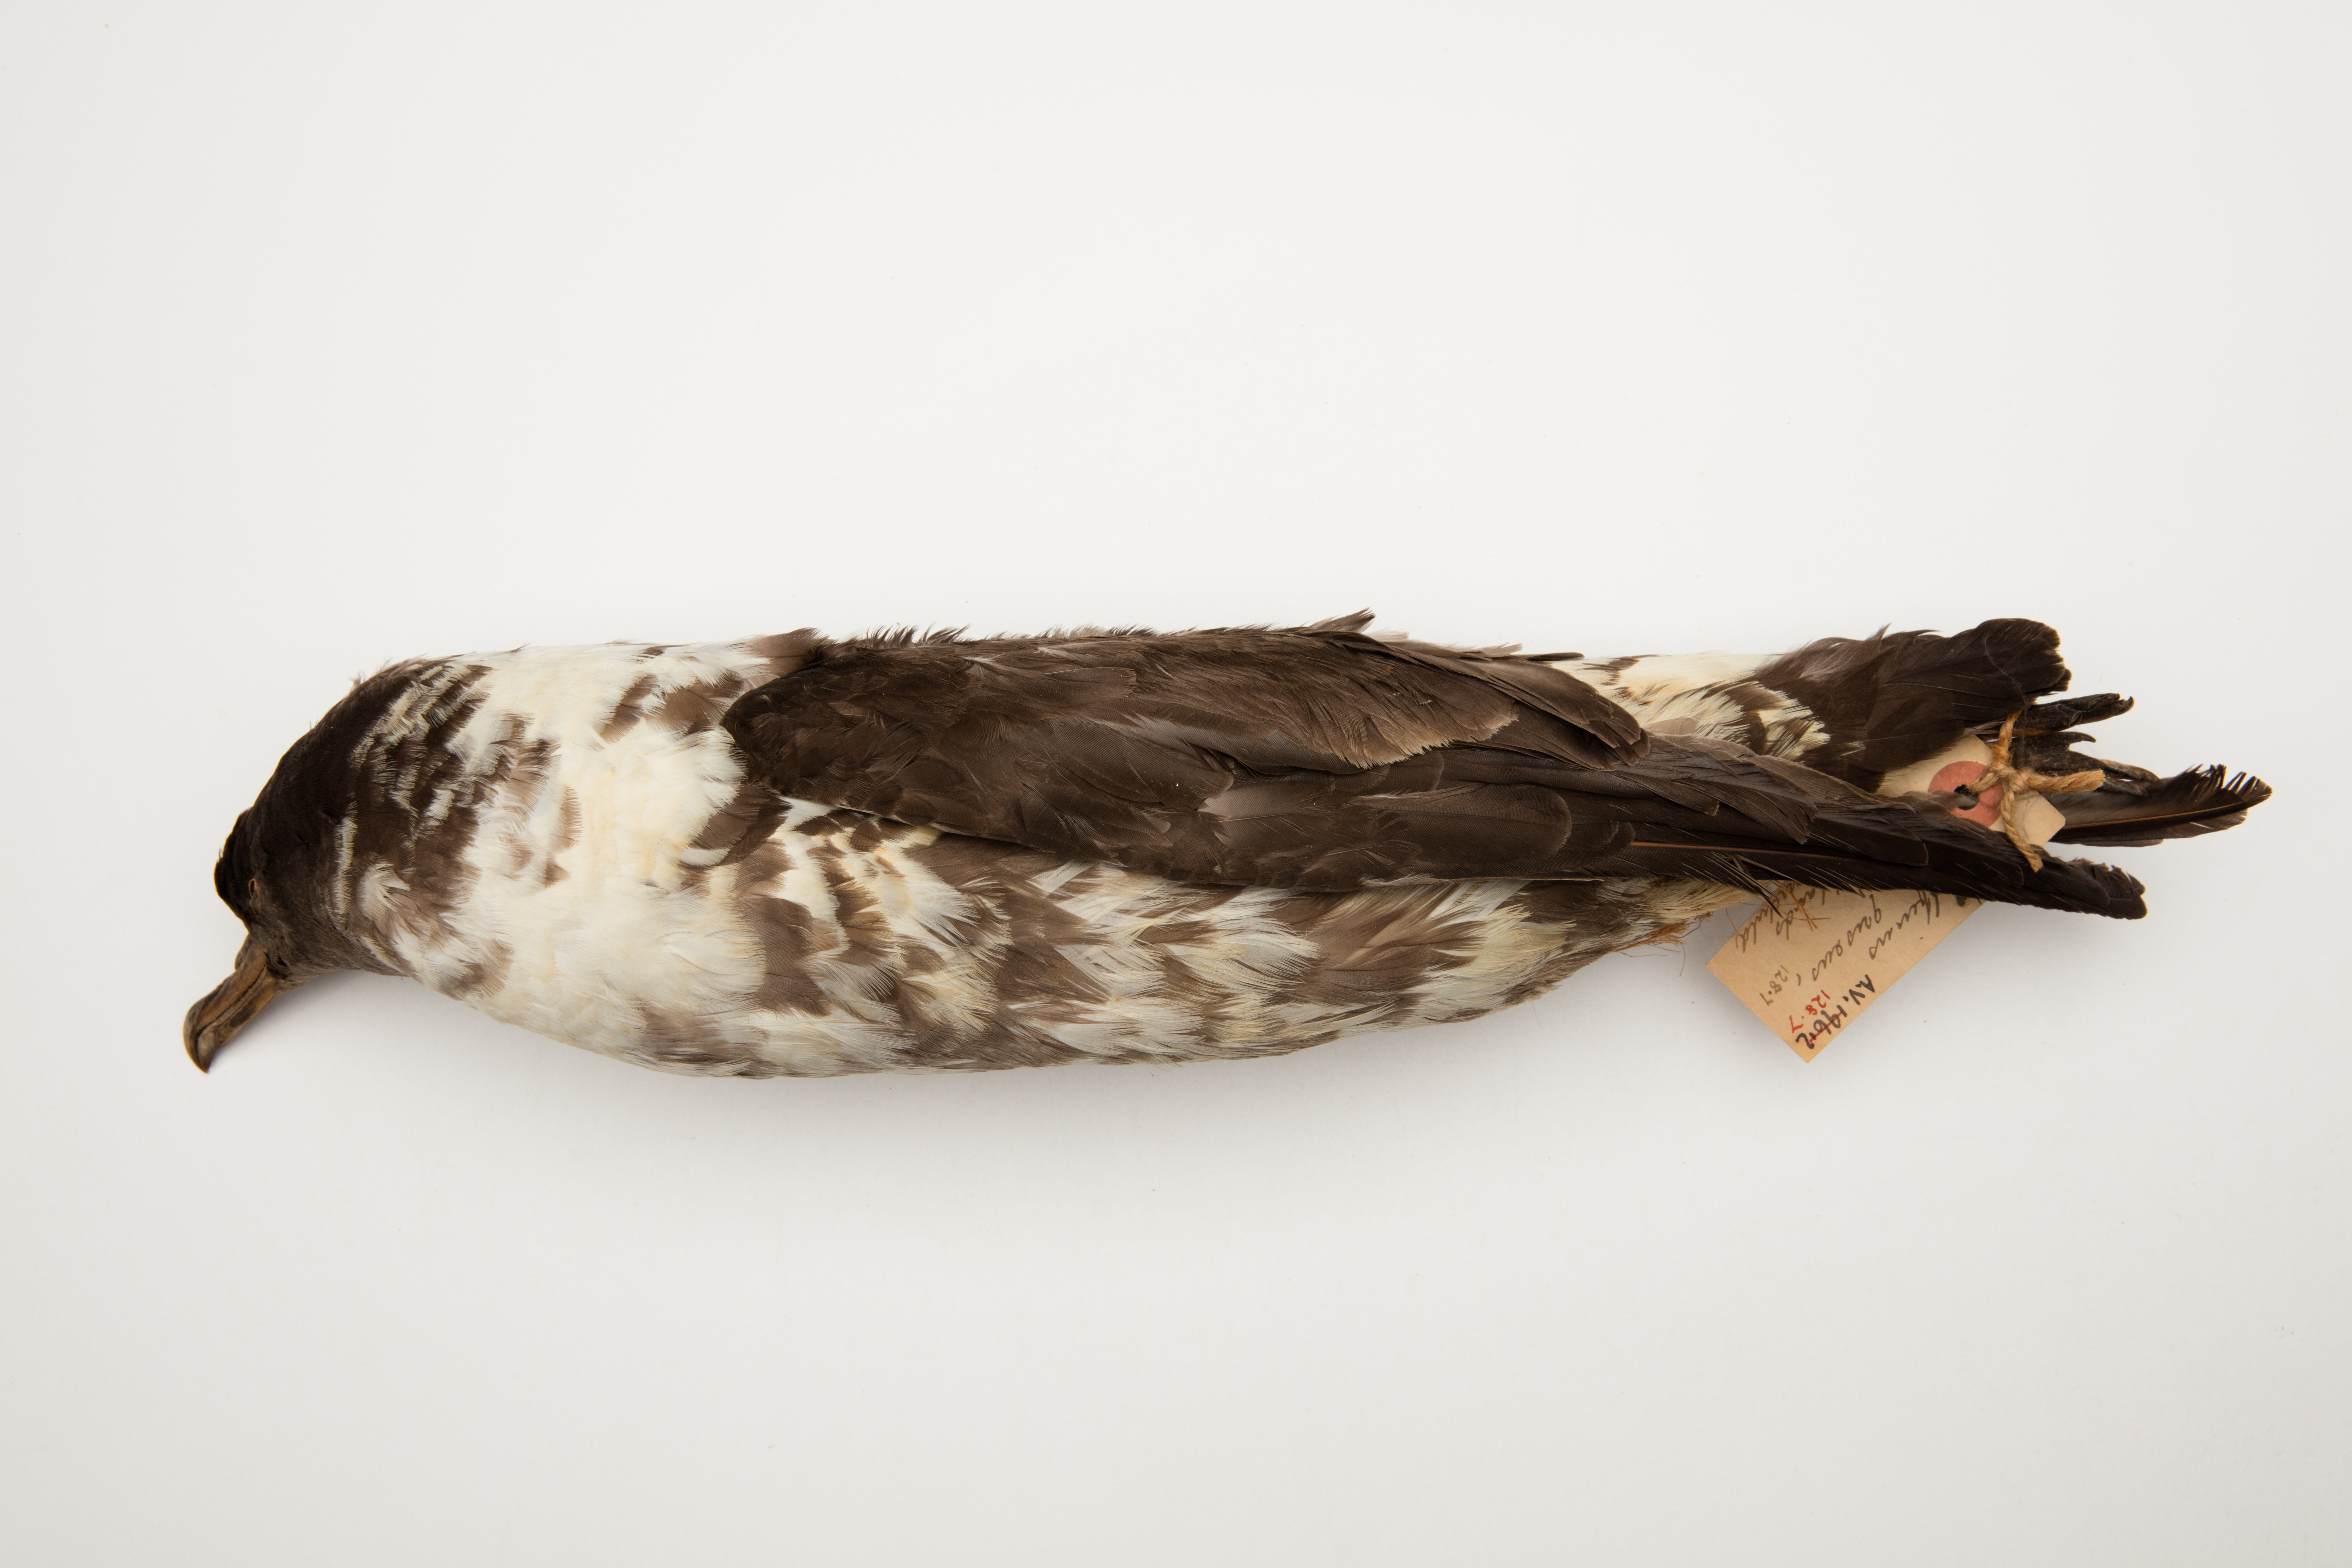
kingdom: Animalia
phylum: Chordata
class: Aves
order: Procellariiformes
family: Procellariidae
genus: Puffinus
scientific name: Puffinus griseus
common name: Sooty shearwater
